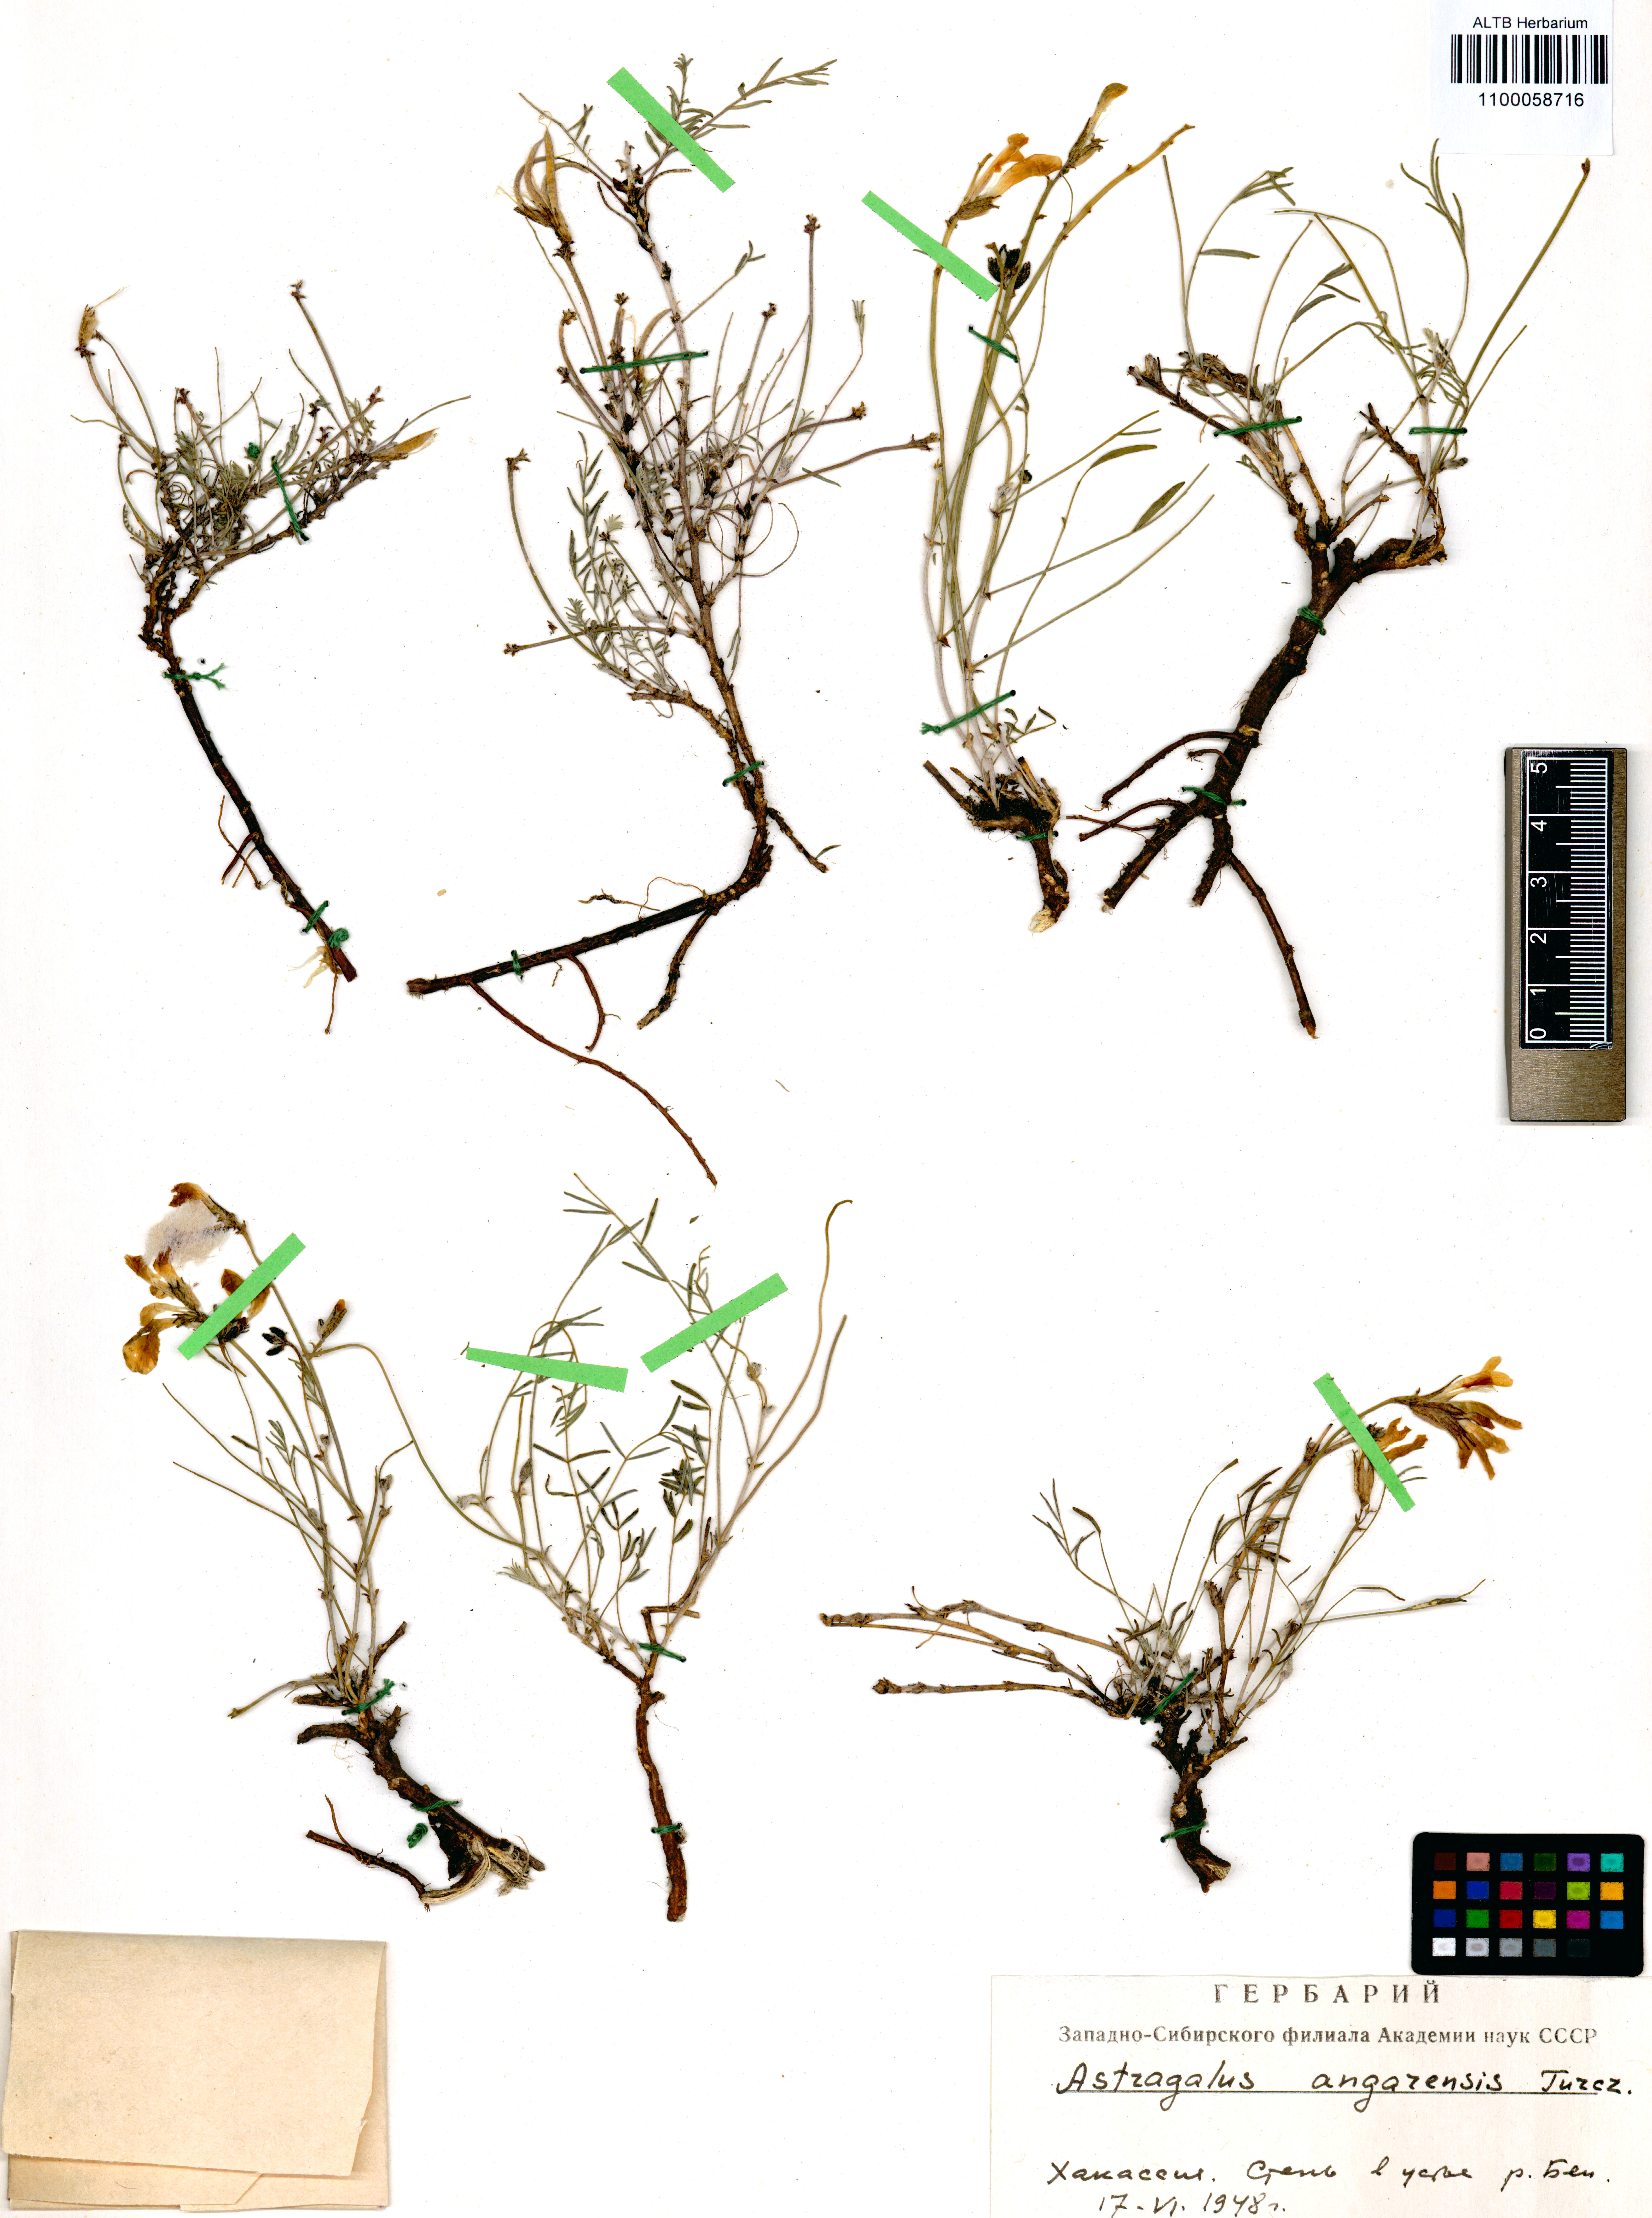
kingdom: Plantae
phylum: Tracheophyta
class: Magnoliopsida
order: Fabales
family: Fabaceae
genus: Astragalus
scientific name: Astragalus angarensis
